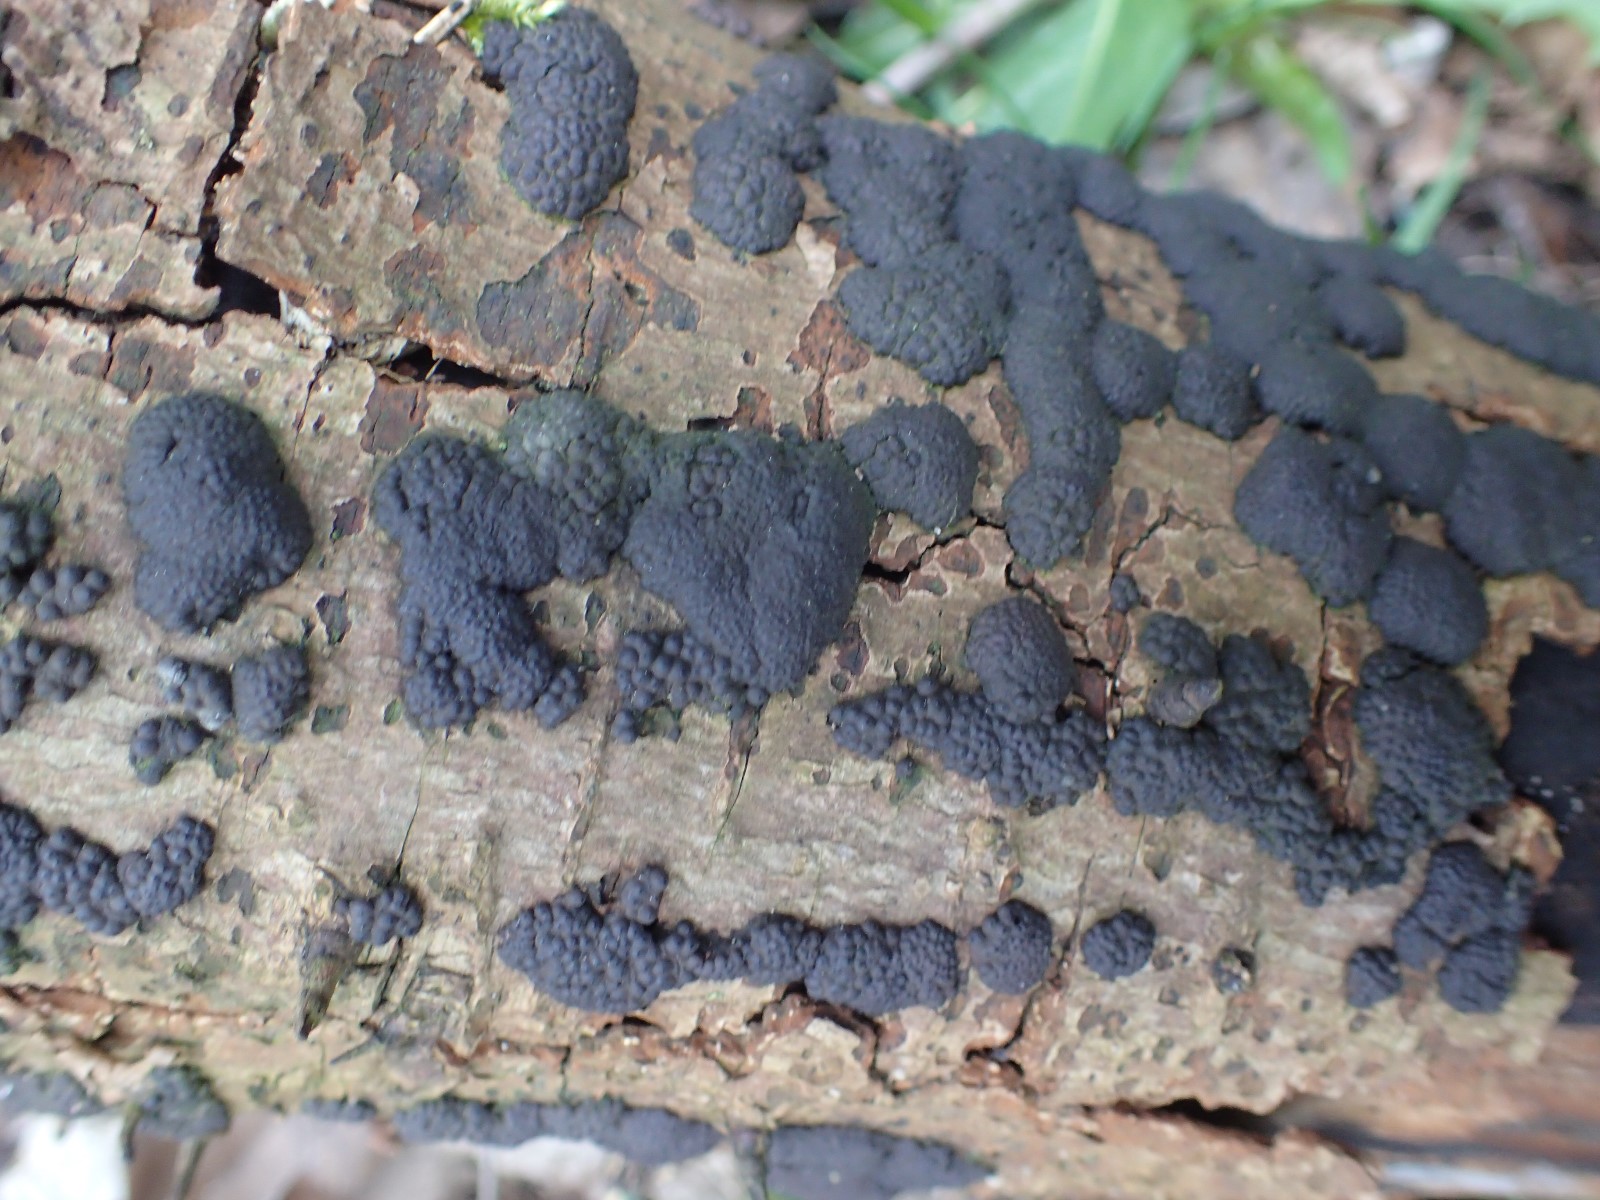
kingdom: Fungi
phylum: Ascomycota
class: Sordariomycetes
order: Xylariales
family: Hypoxylaceae
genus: Jackrogersella
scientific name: Jackrogersella multiformis
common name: foranderlig kulbær
